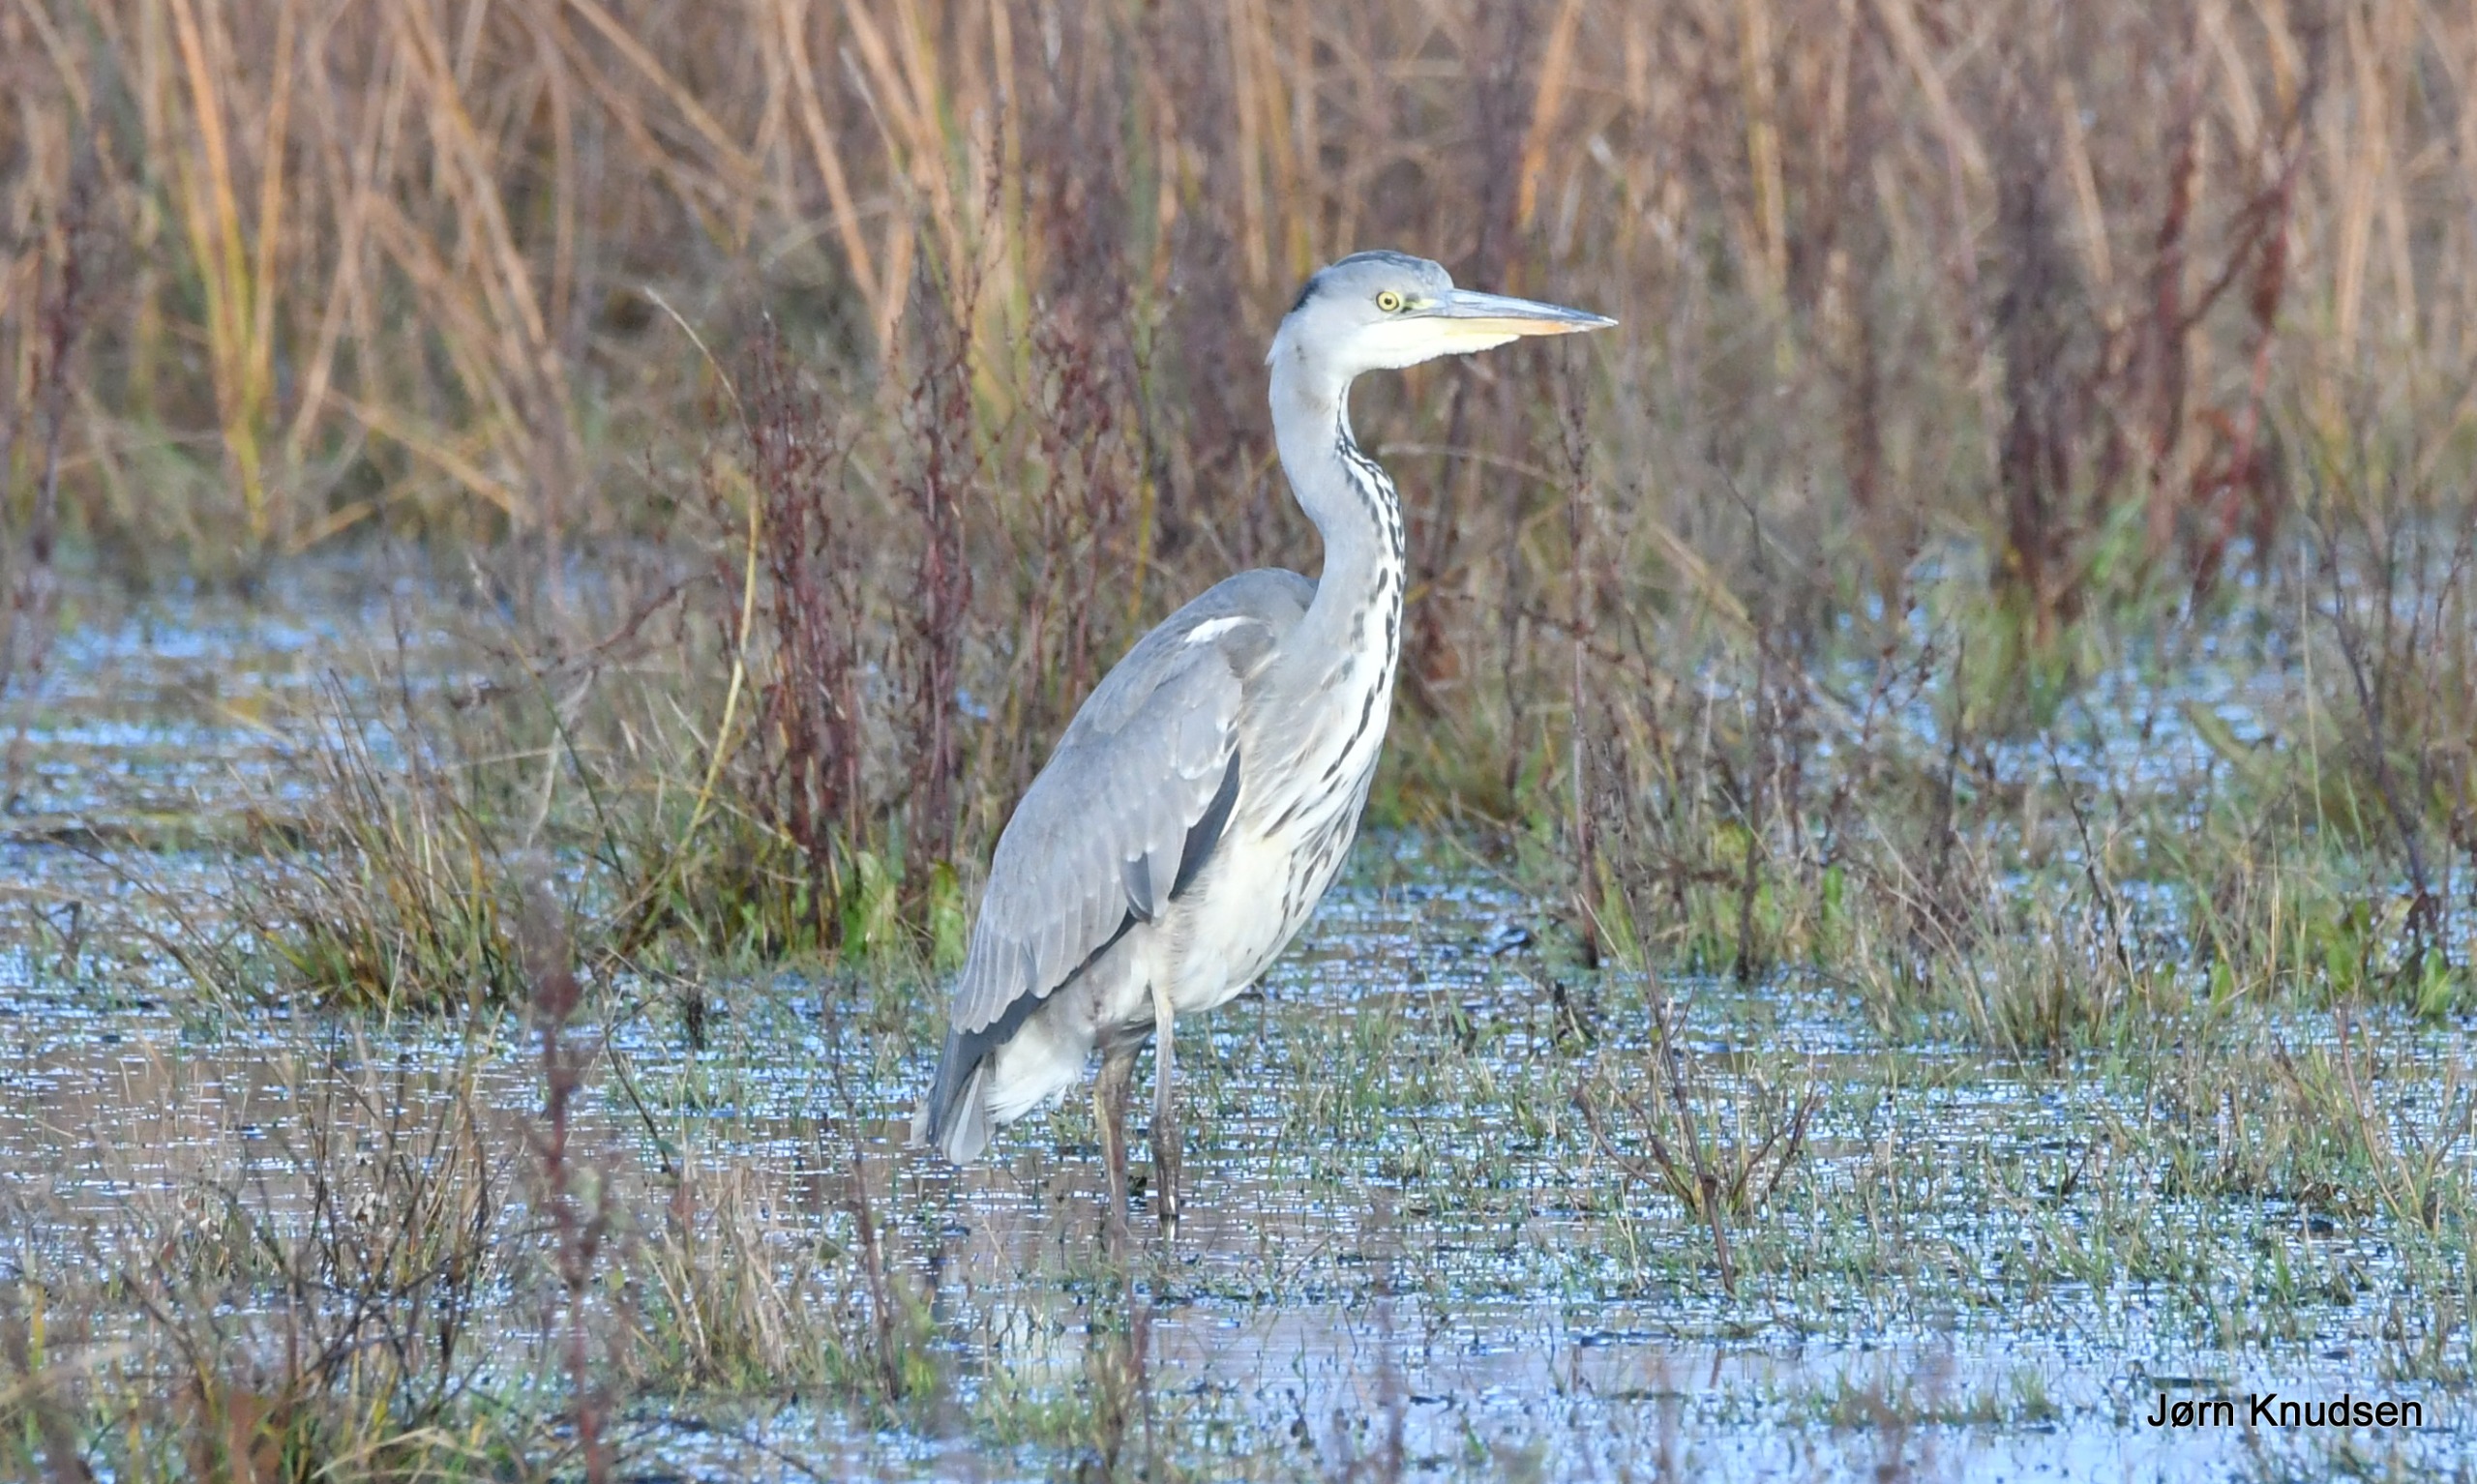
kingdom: Animalia
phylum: Chordata
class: Aves
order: Pelecaniformes
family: Ardeidae
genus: Ardea
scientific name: Ardea cinerea
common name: Fiskehejre
